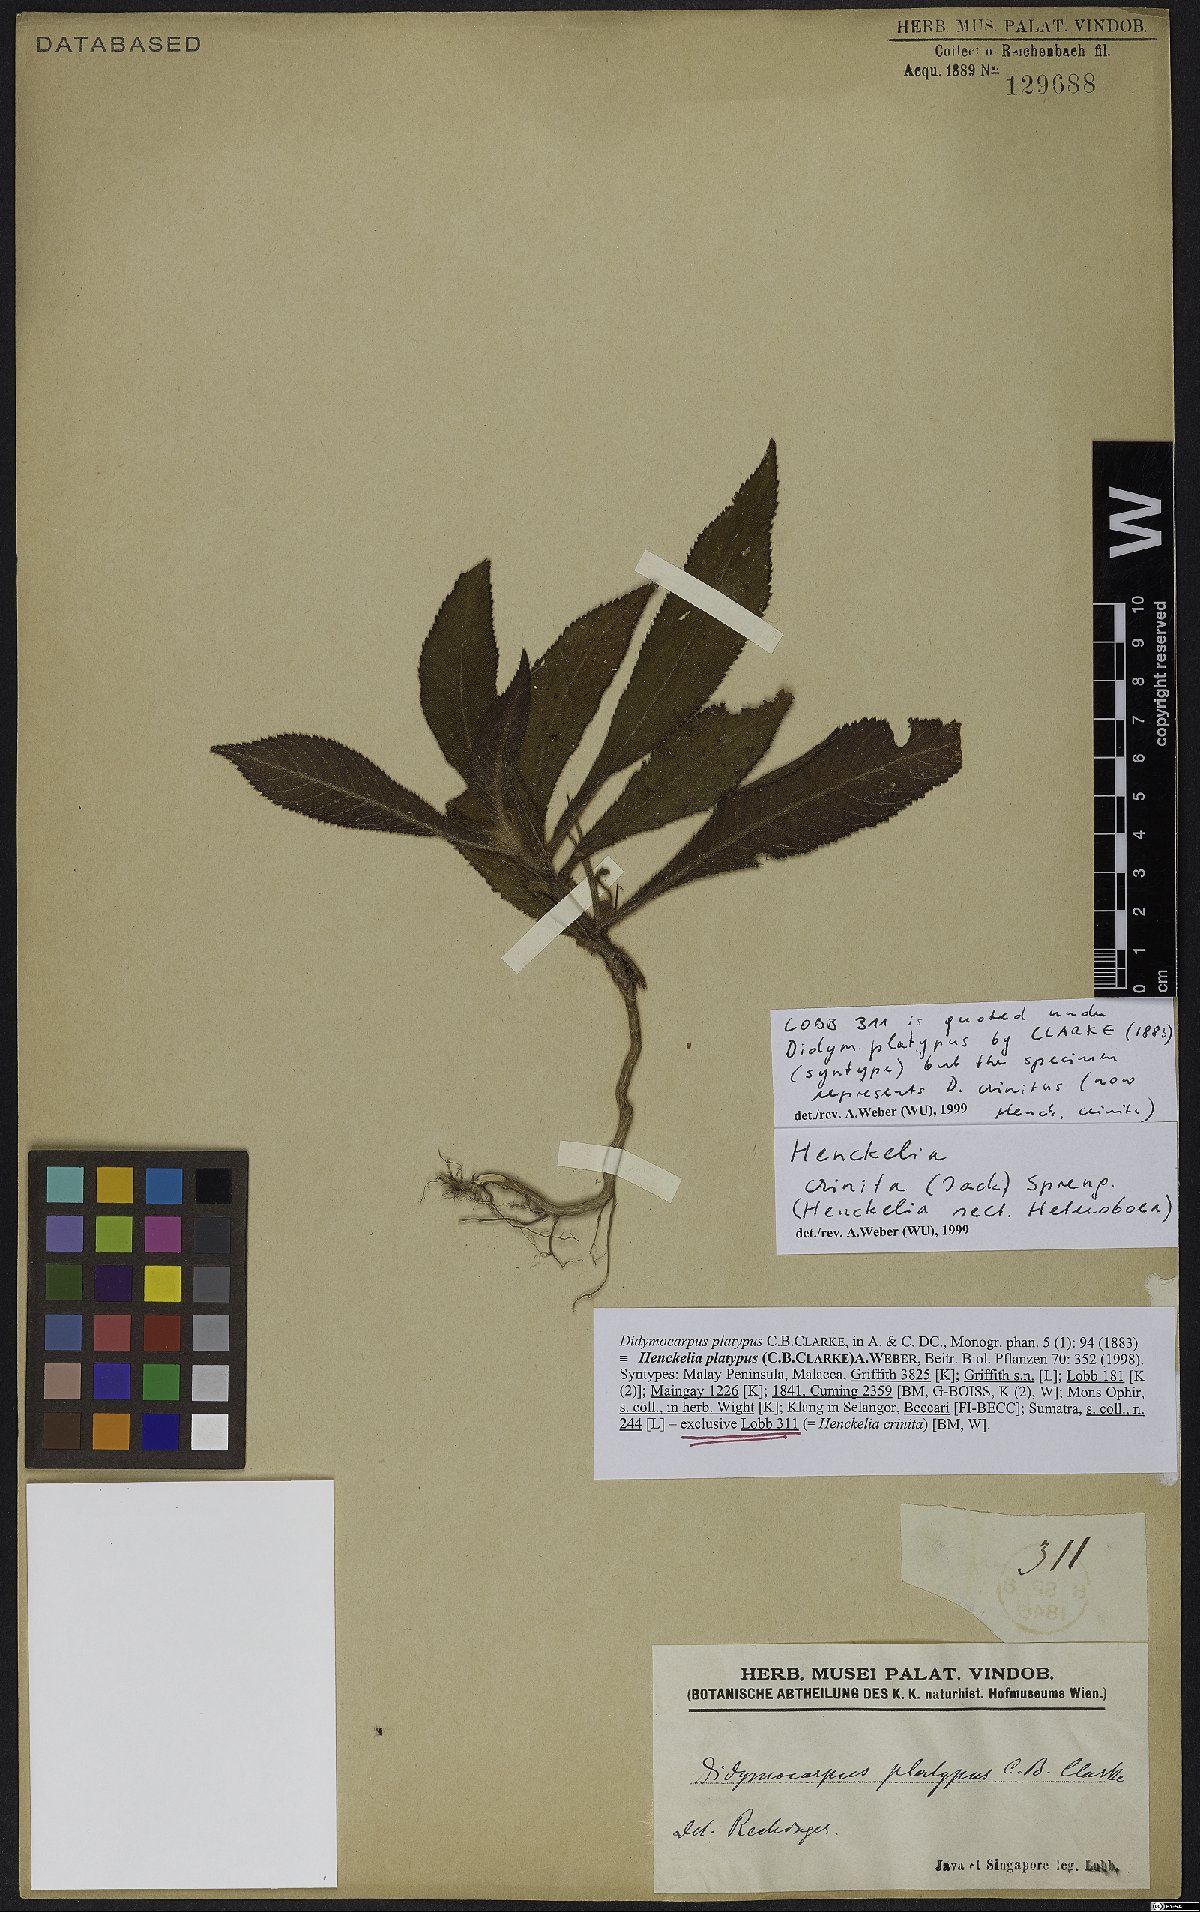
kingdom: Plantae
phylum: Tracheophyta
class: Magnoliopsida
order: Lamiales
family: Gesneriaceae
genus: Codonoboea
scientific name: Codonoboea crinita
